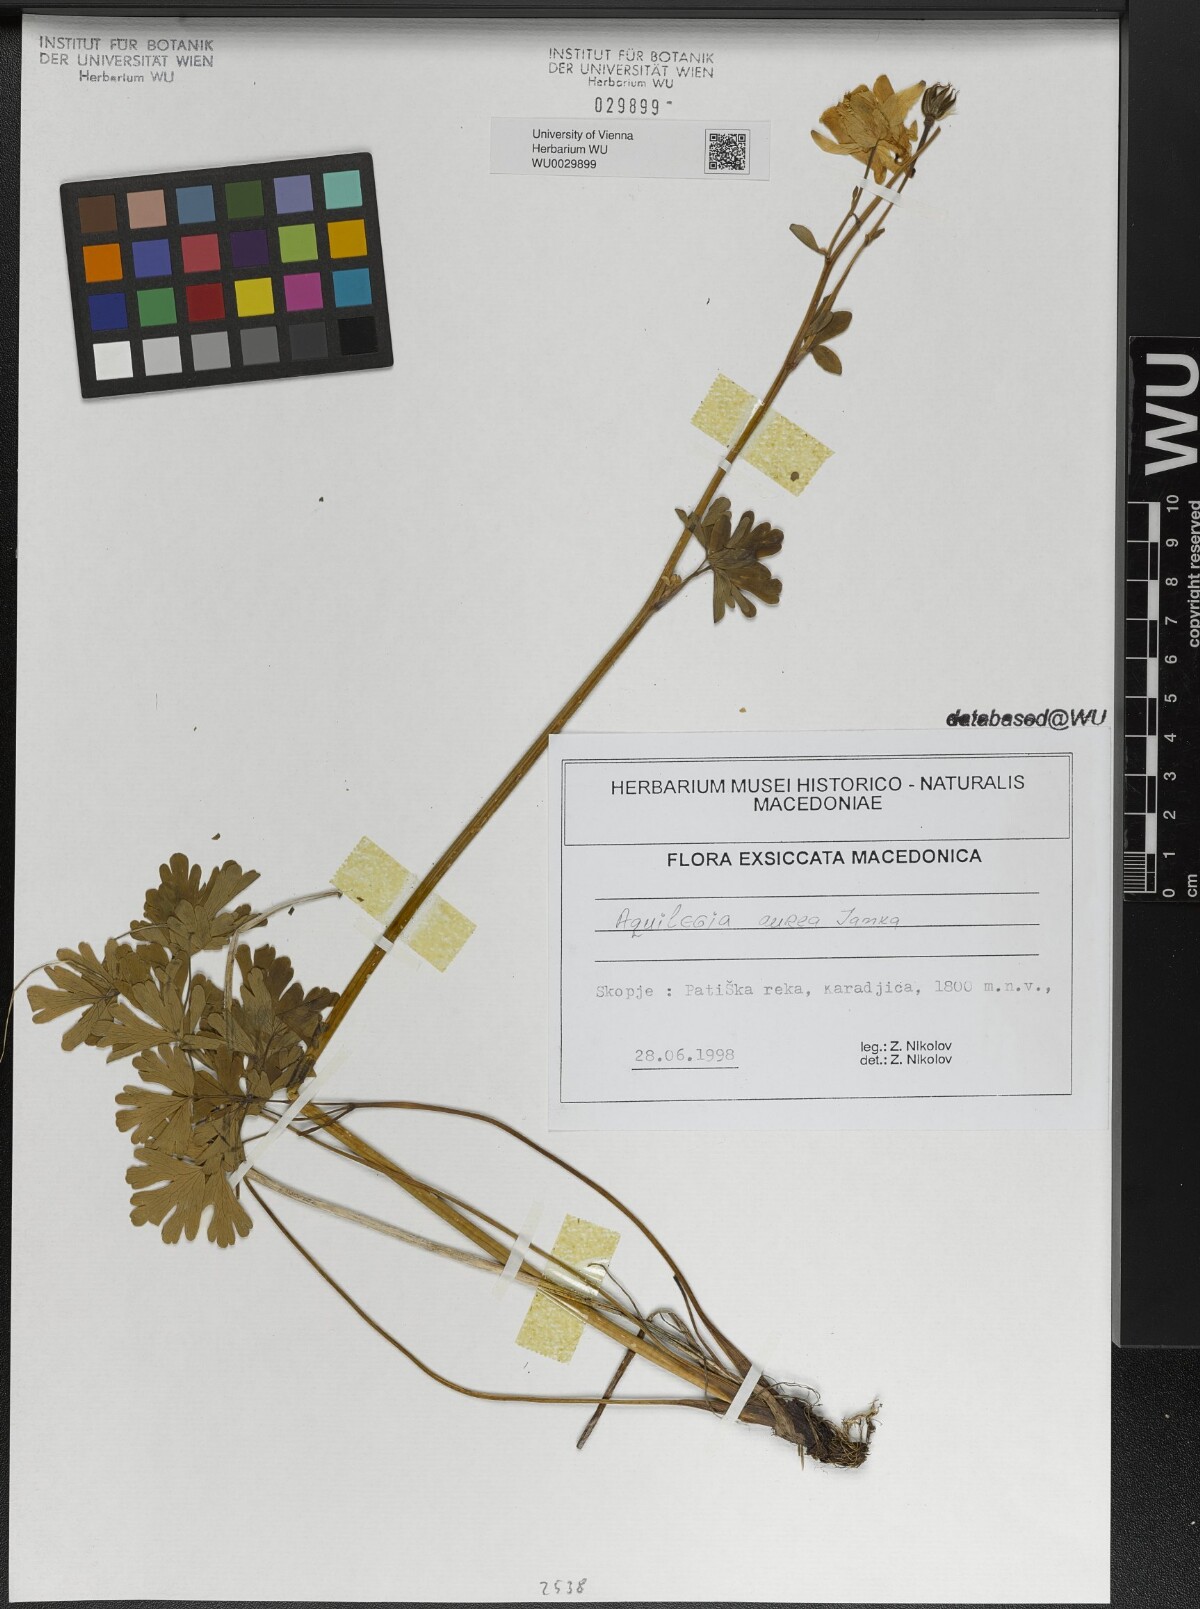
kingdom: Plantae
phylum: Tracheophyta
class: Magnoliopsida
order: Ranunculales
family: Ranunculaceae
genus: Aquilegia
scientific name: Aquilegia aurea
